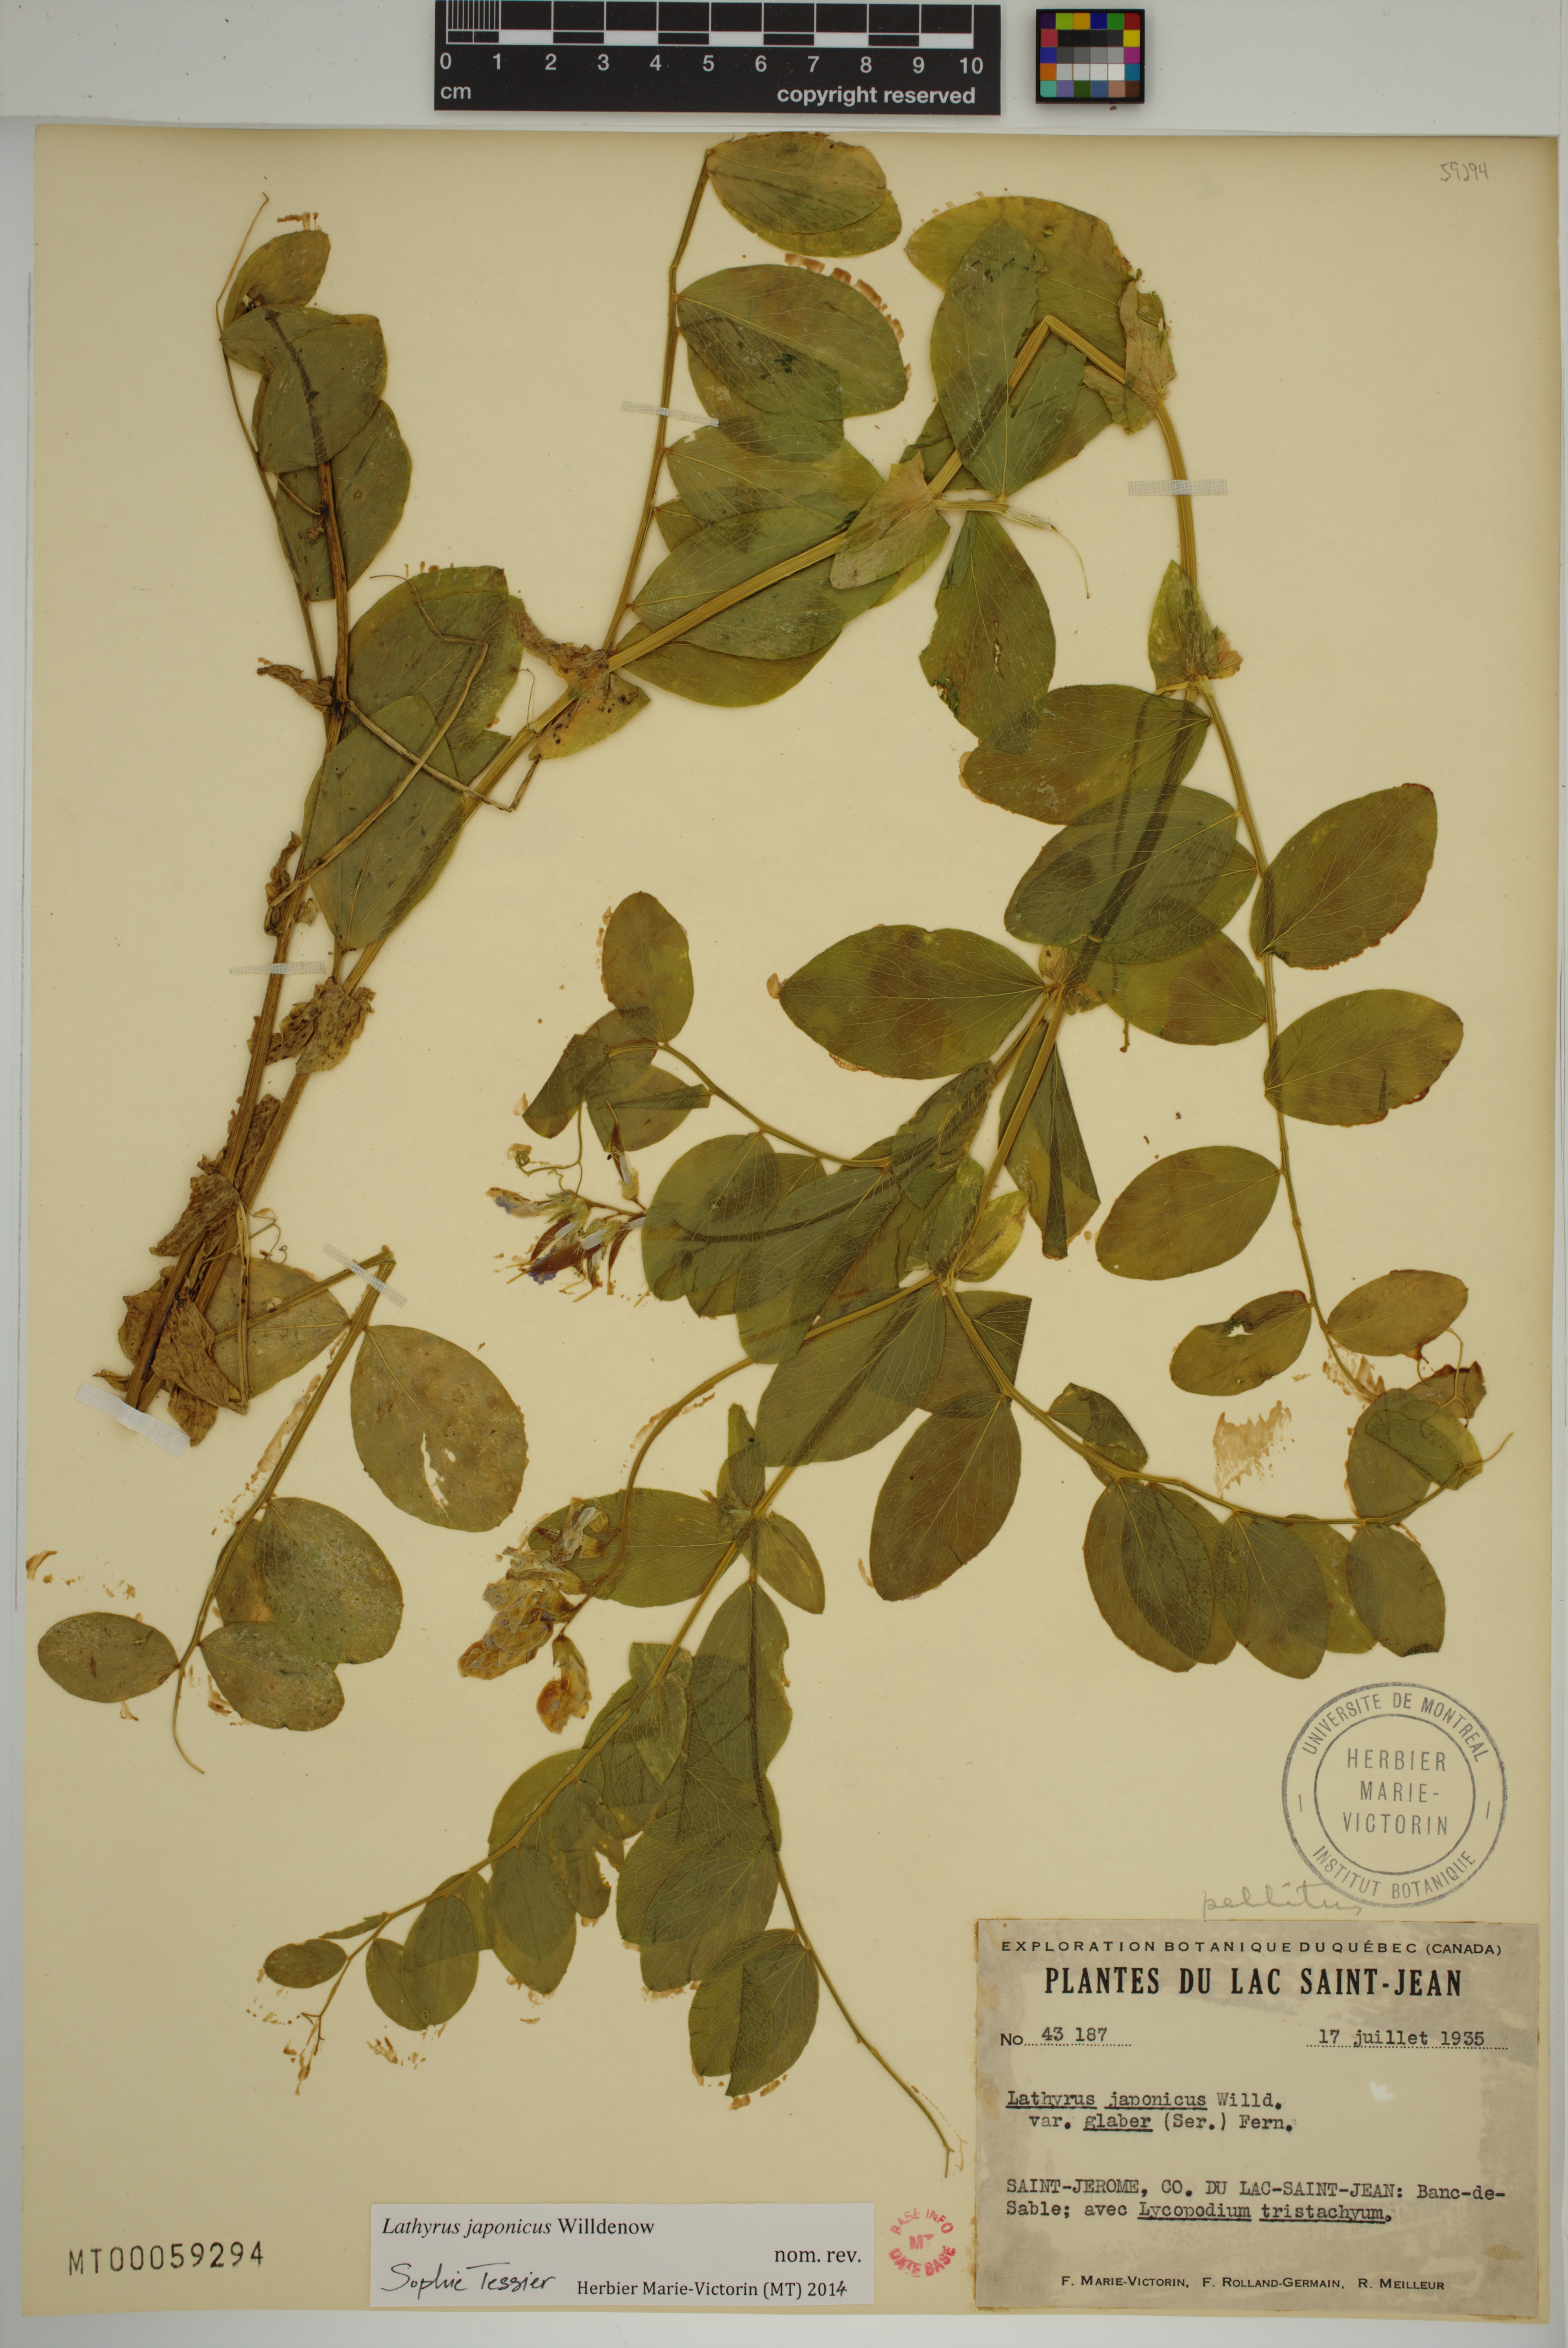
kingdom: Plantae
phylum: Tracheophyta
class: Magnoliopsida
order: Fabales
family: Fabaceae
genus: Lathyrus
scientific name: Lathyrus japonicus
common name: Sea pea
